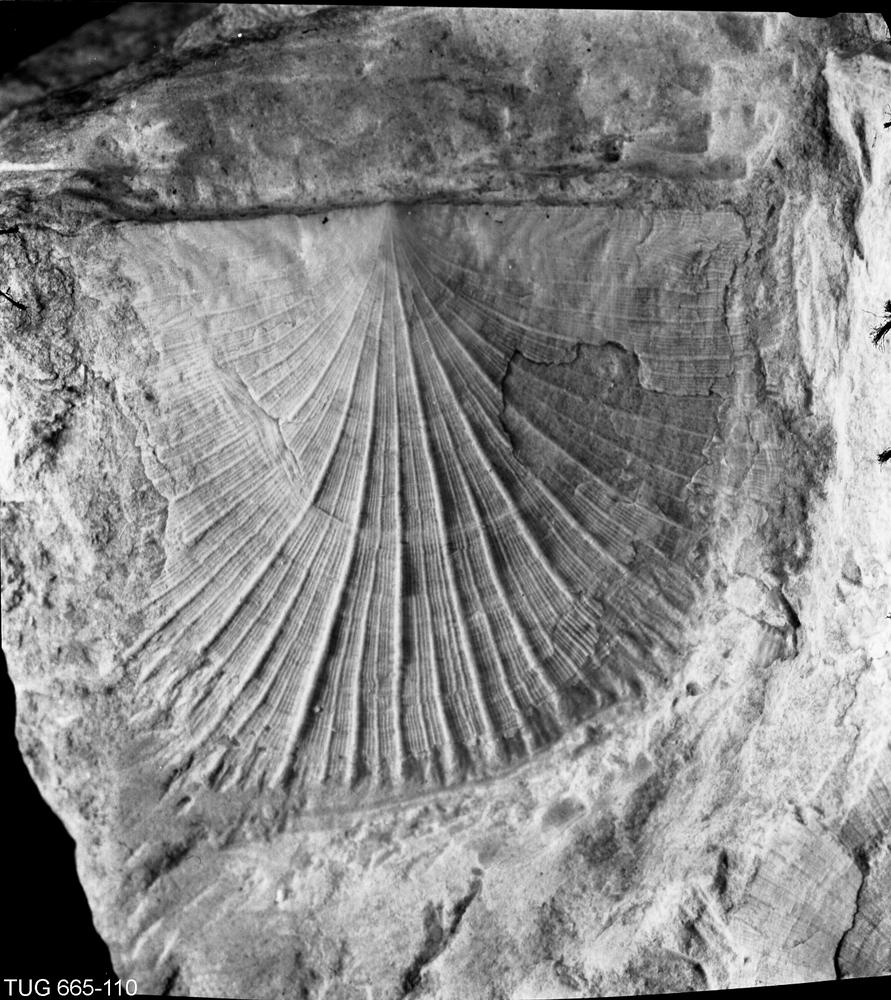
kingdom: Animalia
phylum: Brachiopoda
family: Rafinesquinidae
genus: Pirgumena
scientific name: Pirgumena
